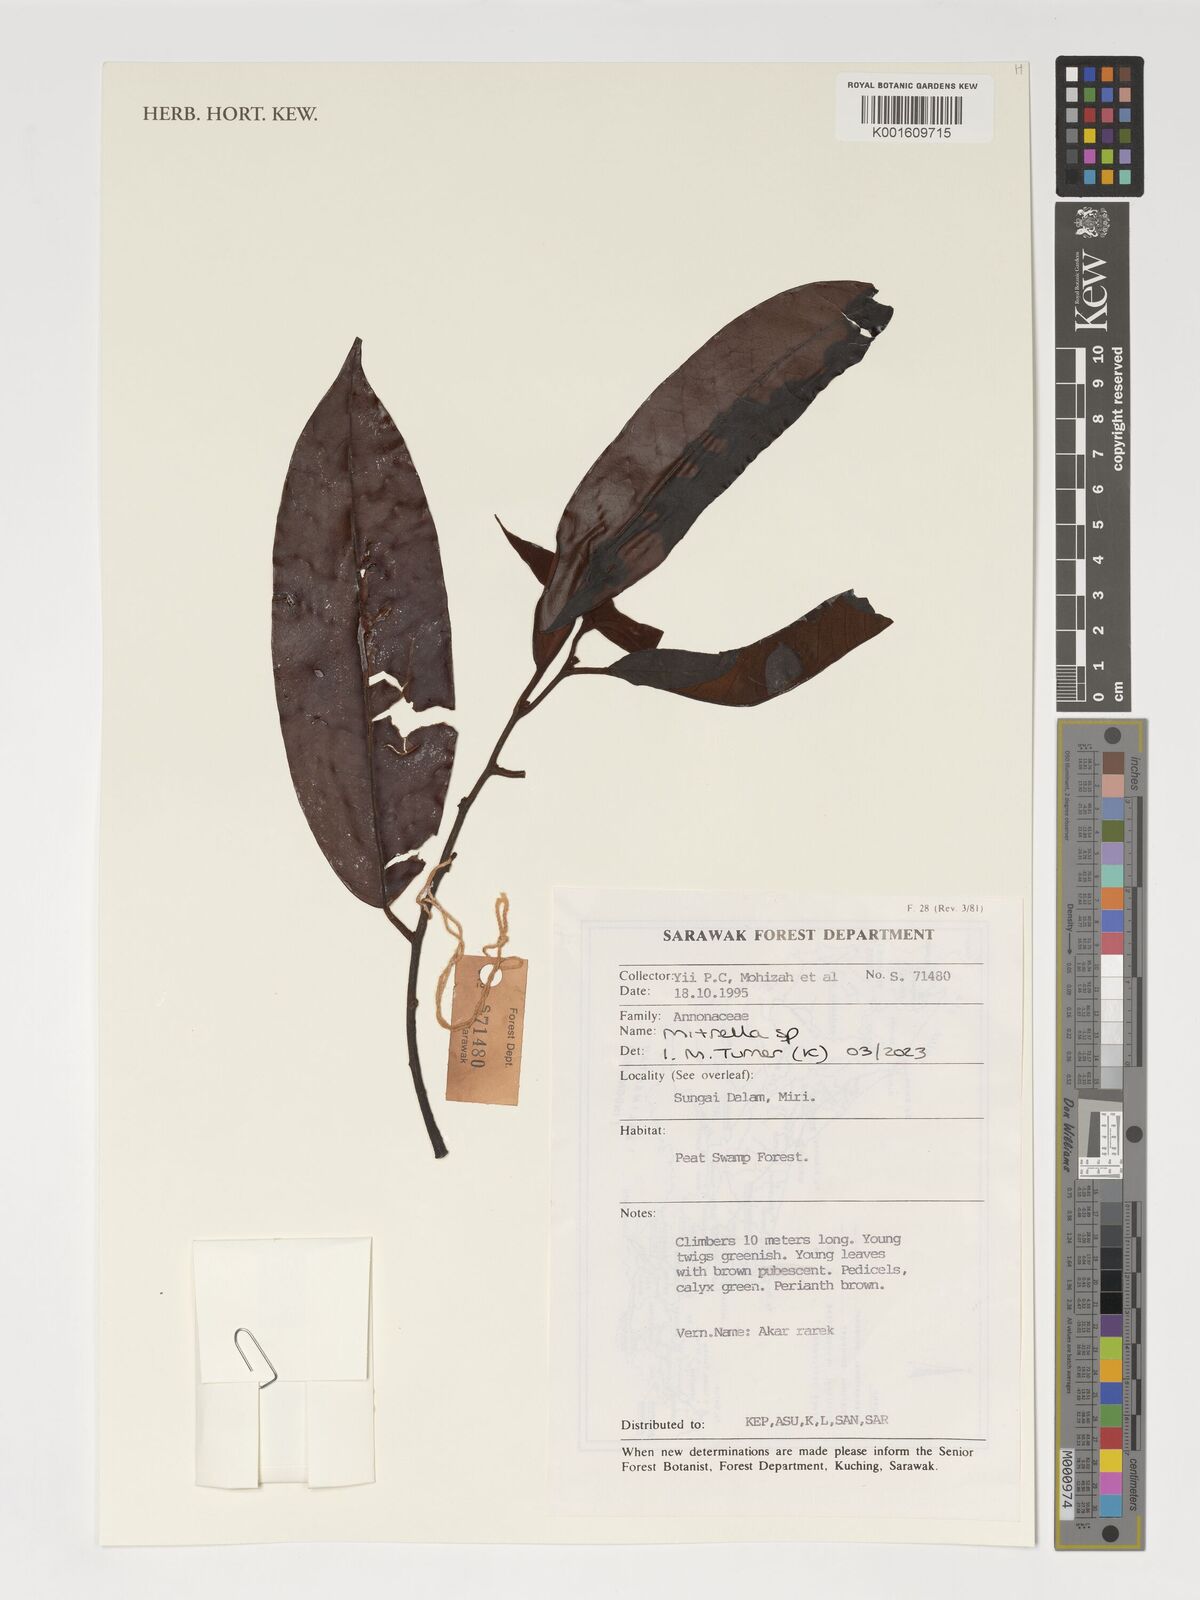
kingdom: Plantae
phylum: Tracheophyta
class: Magnoliopsida
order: Magnoliales
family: Annonaceae
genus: Mitrella
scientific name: Mitrella
